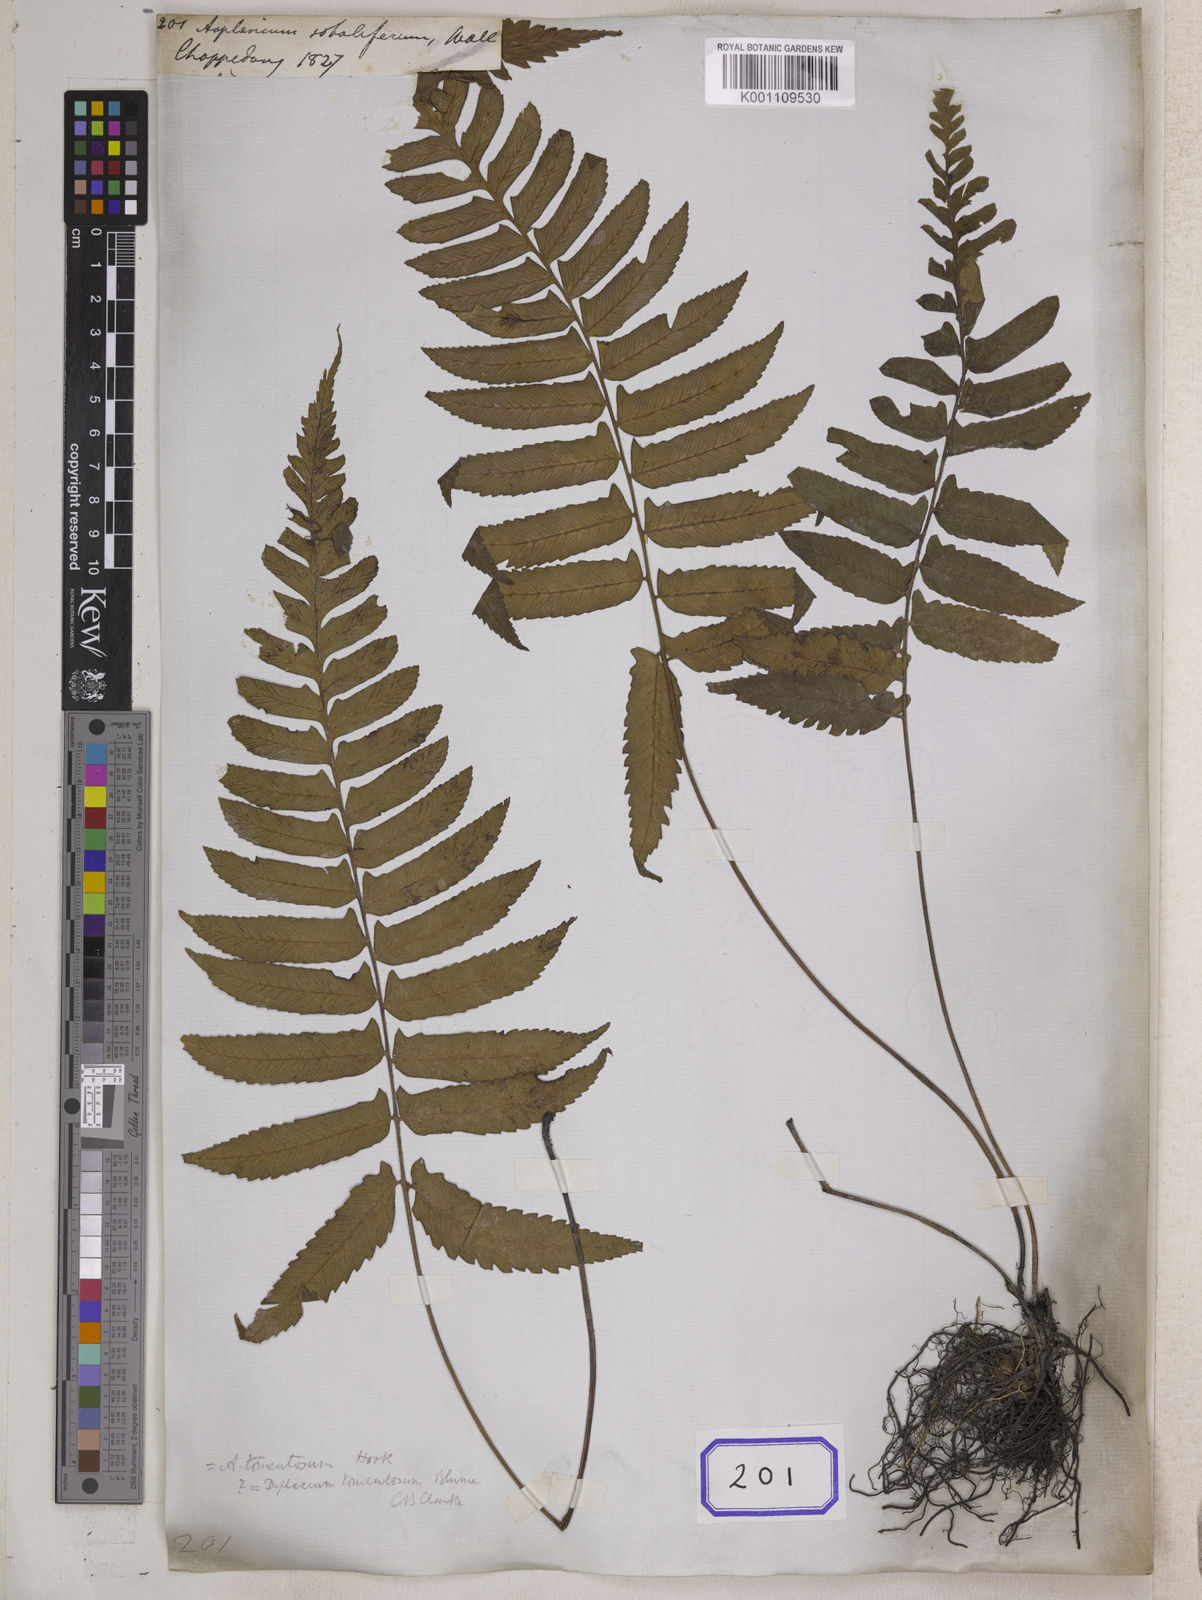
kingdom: Plantae
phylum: Tracheophyta
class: Polypodiopsida
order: Polypodiales
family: Aspleniaceae
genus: Asplenium
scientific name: Asplenium
